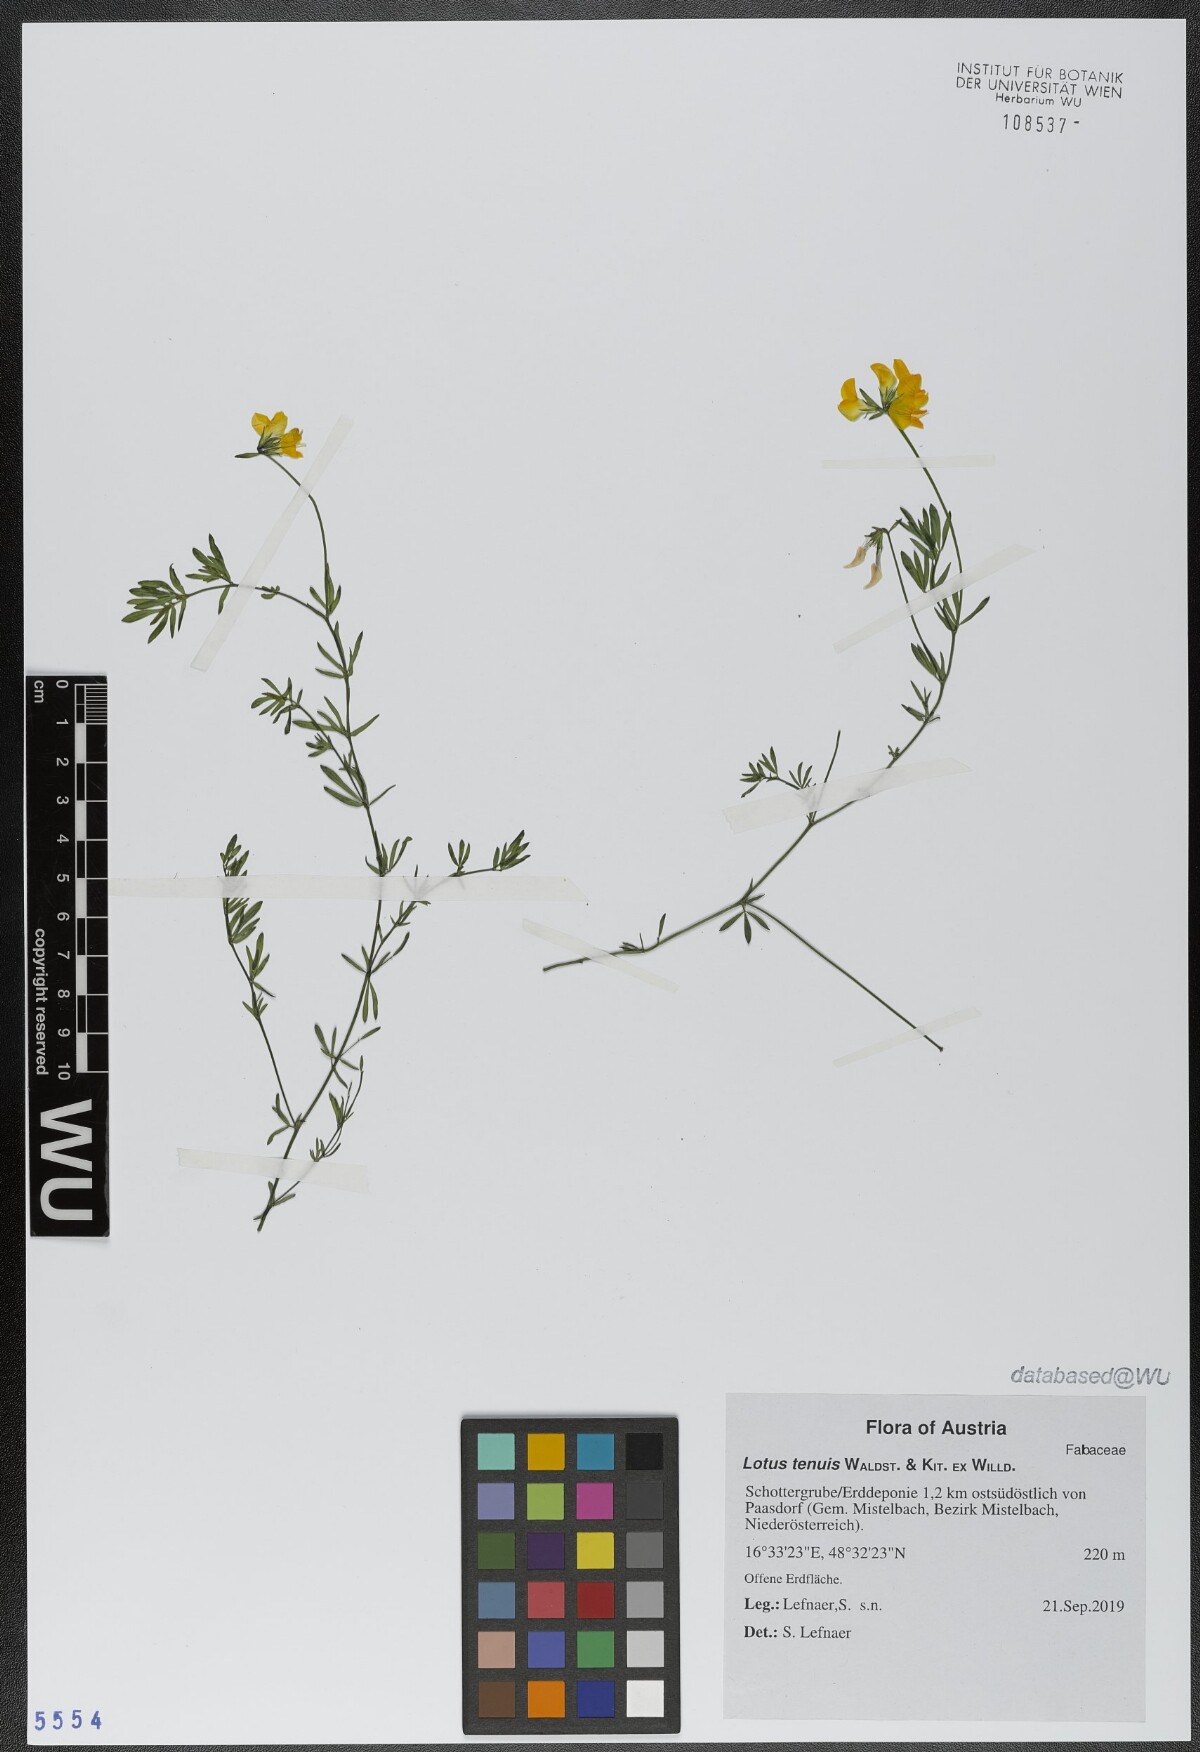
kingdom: Plantae
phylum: Tracheophyta
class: Magnoliopsida
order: Fabales
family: Fabaceae
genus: Lotus
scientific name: Lotus tenuis
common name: Narrow-leaved bird's-foot-trefoil
